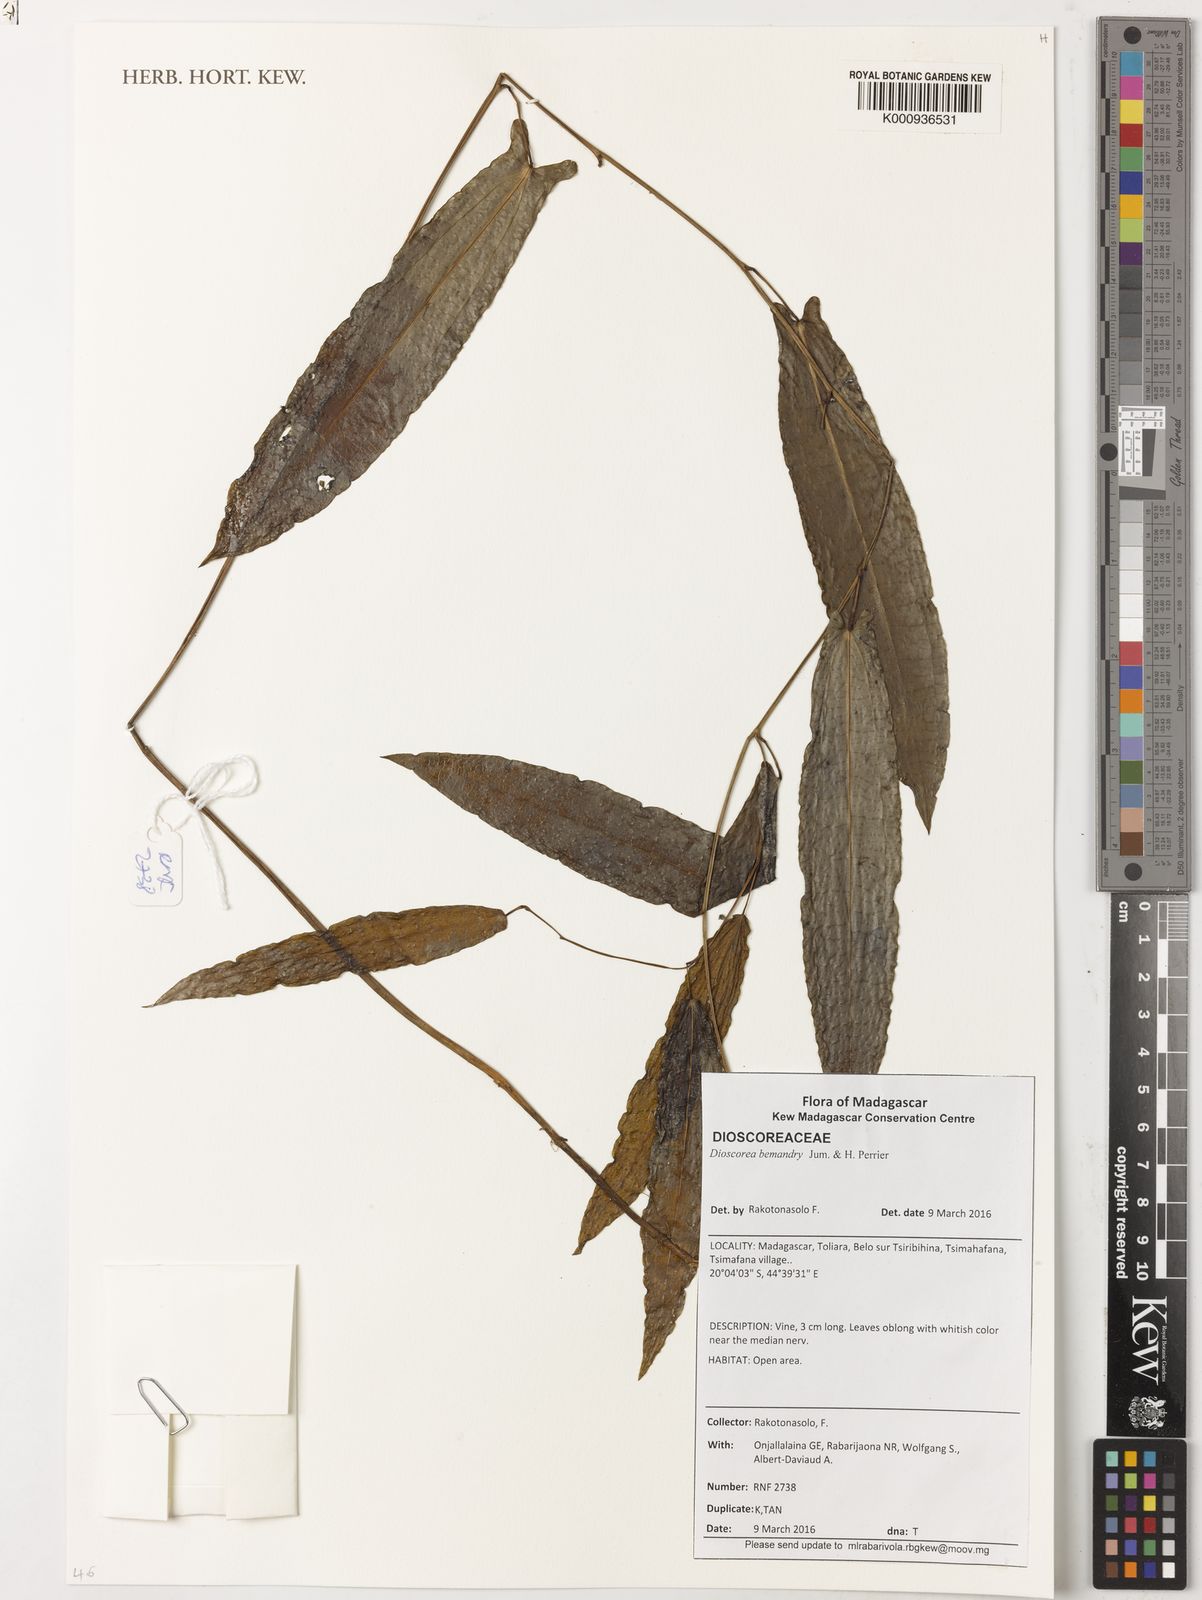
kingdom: Plantae
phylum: Tracheophyta
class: Liliopsida
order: Dioscoreales
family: Dioscoreaceae
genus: Dioscorea
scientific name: Dioscorea bemandry
